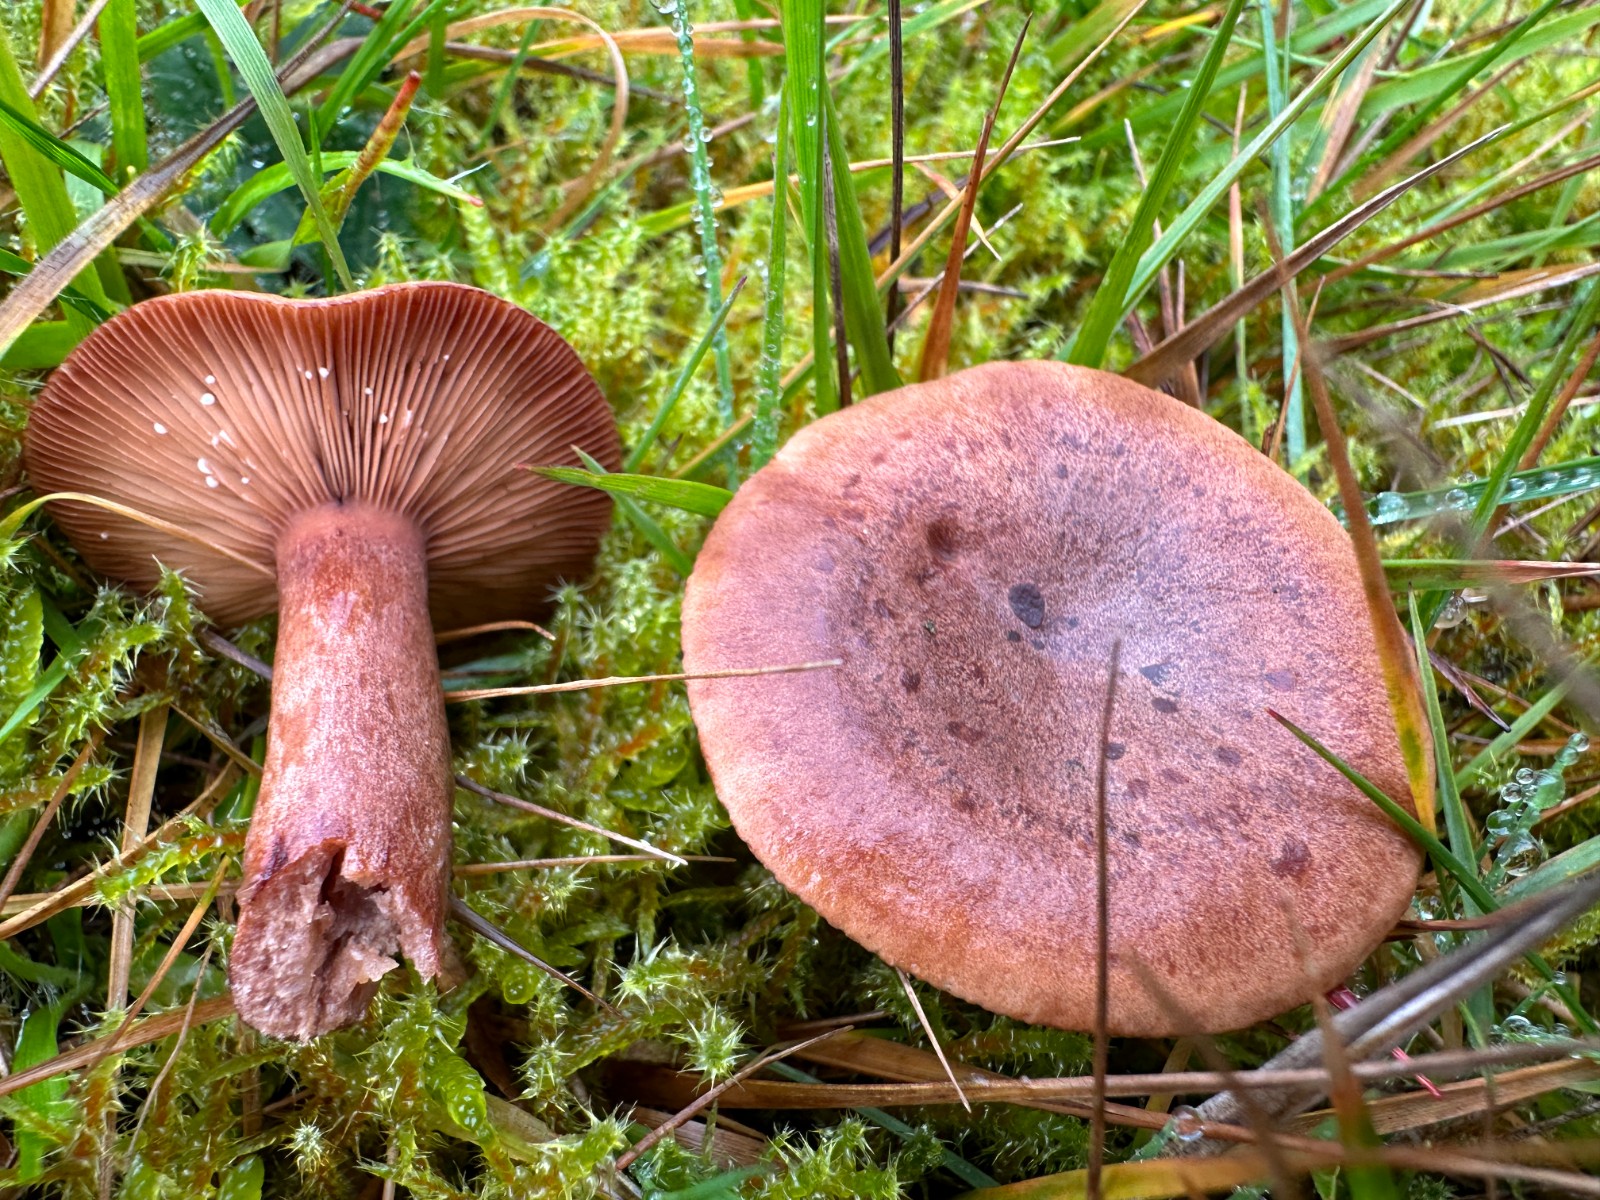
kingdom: Fungi
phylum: Basidiomycota
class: Agaricomycetes
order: Russulales
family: Russulaceae
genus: Lactarius
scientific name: Lactarius quietus
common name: ege-mælkehat
